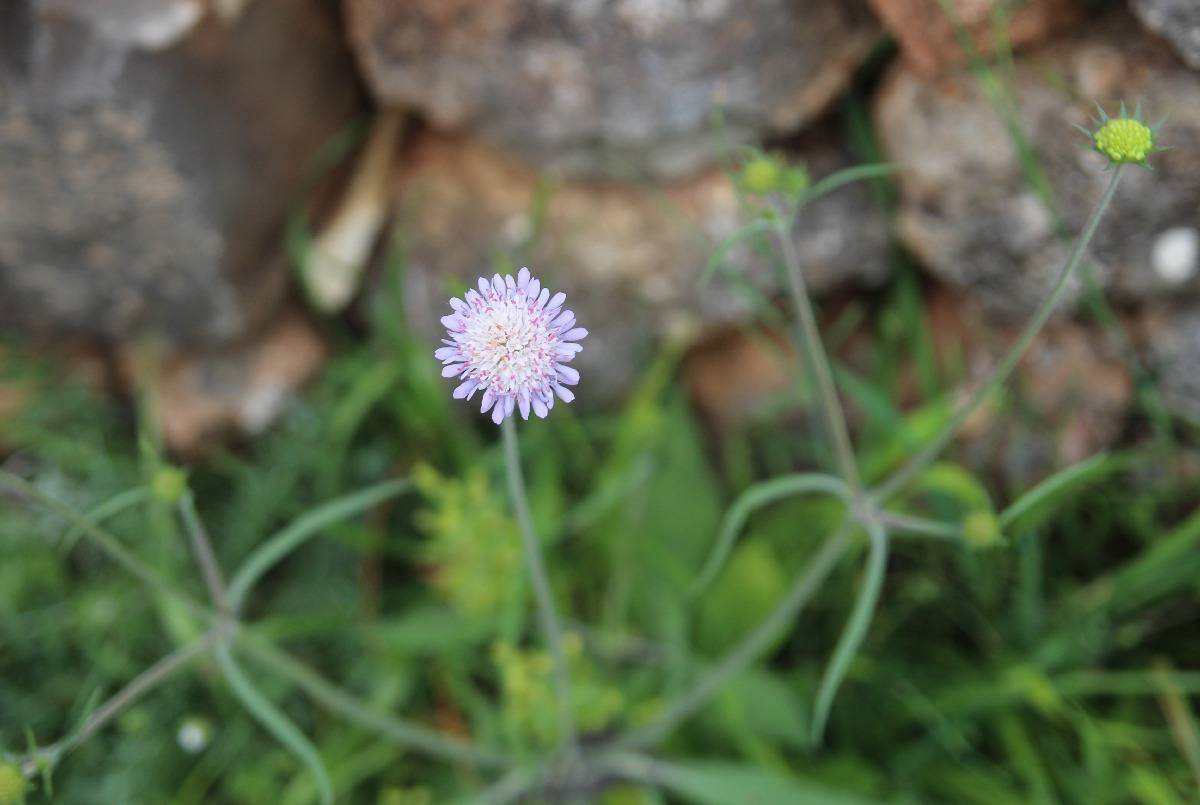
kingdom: Plantae
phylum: Tracheophyta
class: Magnoliopsida
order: Dipsacales
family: Caprifoliaceae
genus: Knautia
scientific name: Knautia magnifica
